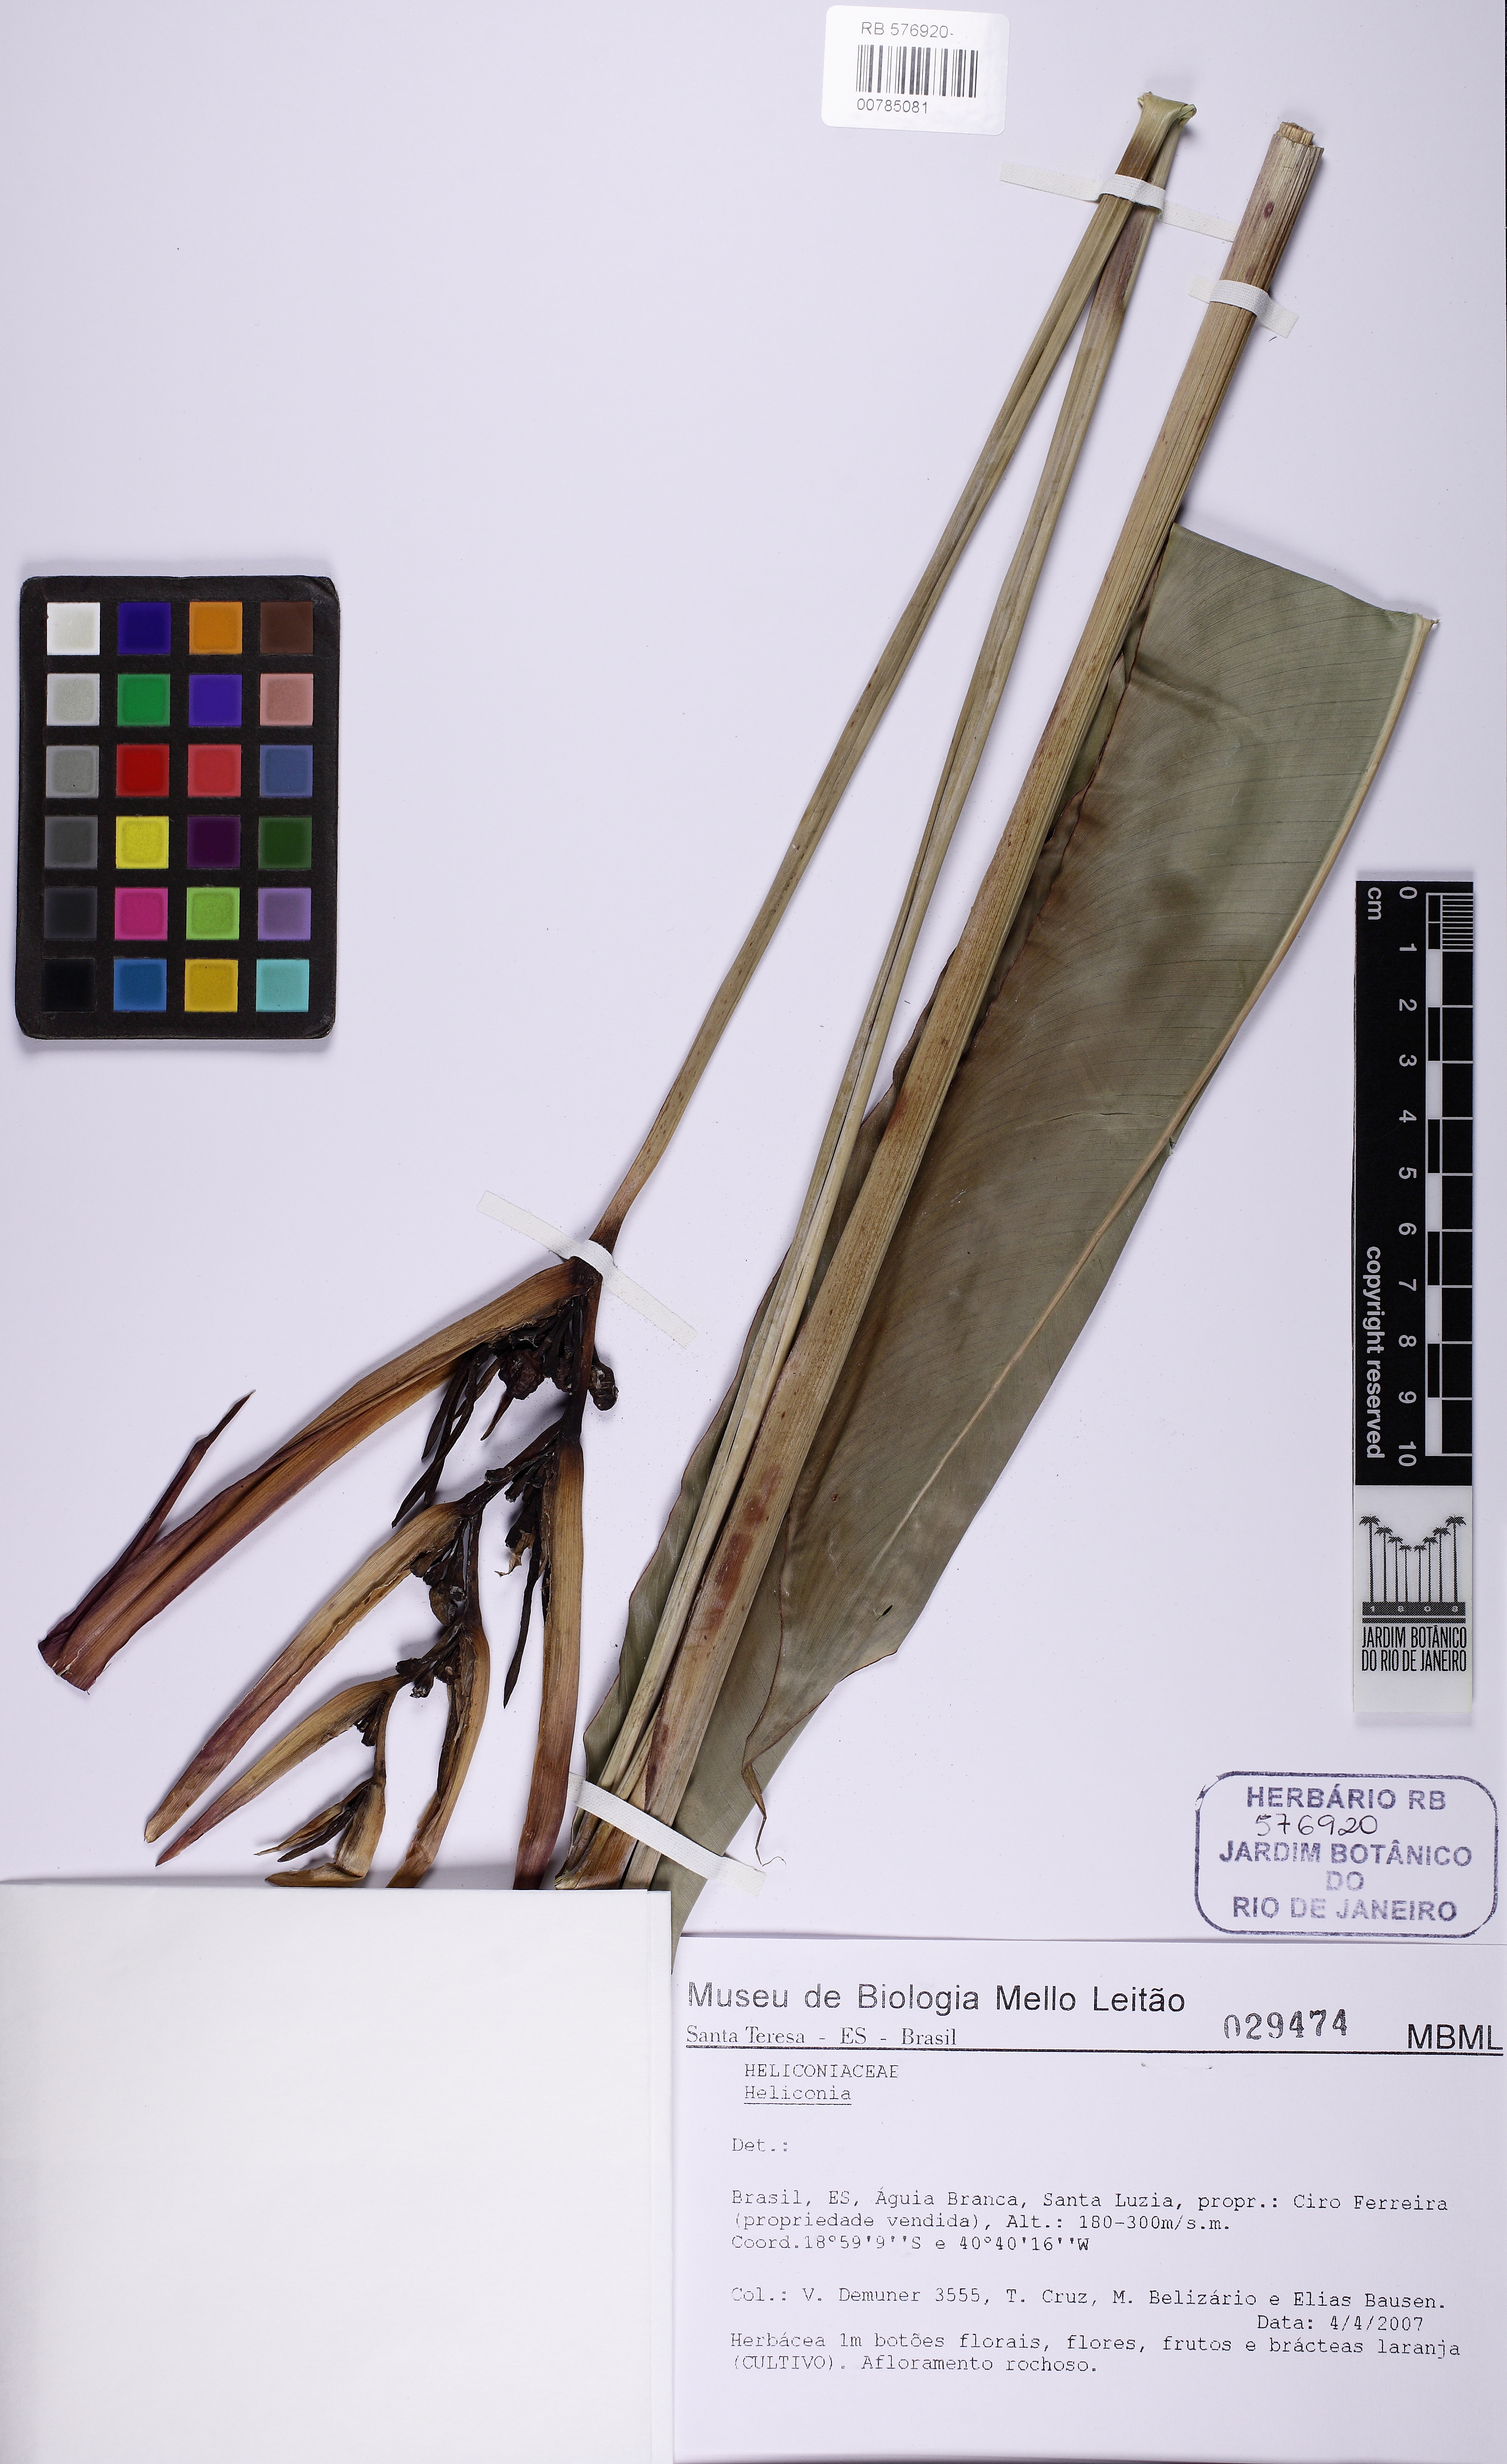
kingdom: Plantae
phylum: Tracheophyta
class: Liliopsida
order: Zingiberales
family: Heliconiaceae
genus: Heliconia
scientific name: Heliconia psittacorum
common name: Parrot's-flower
